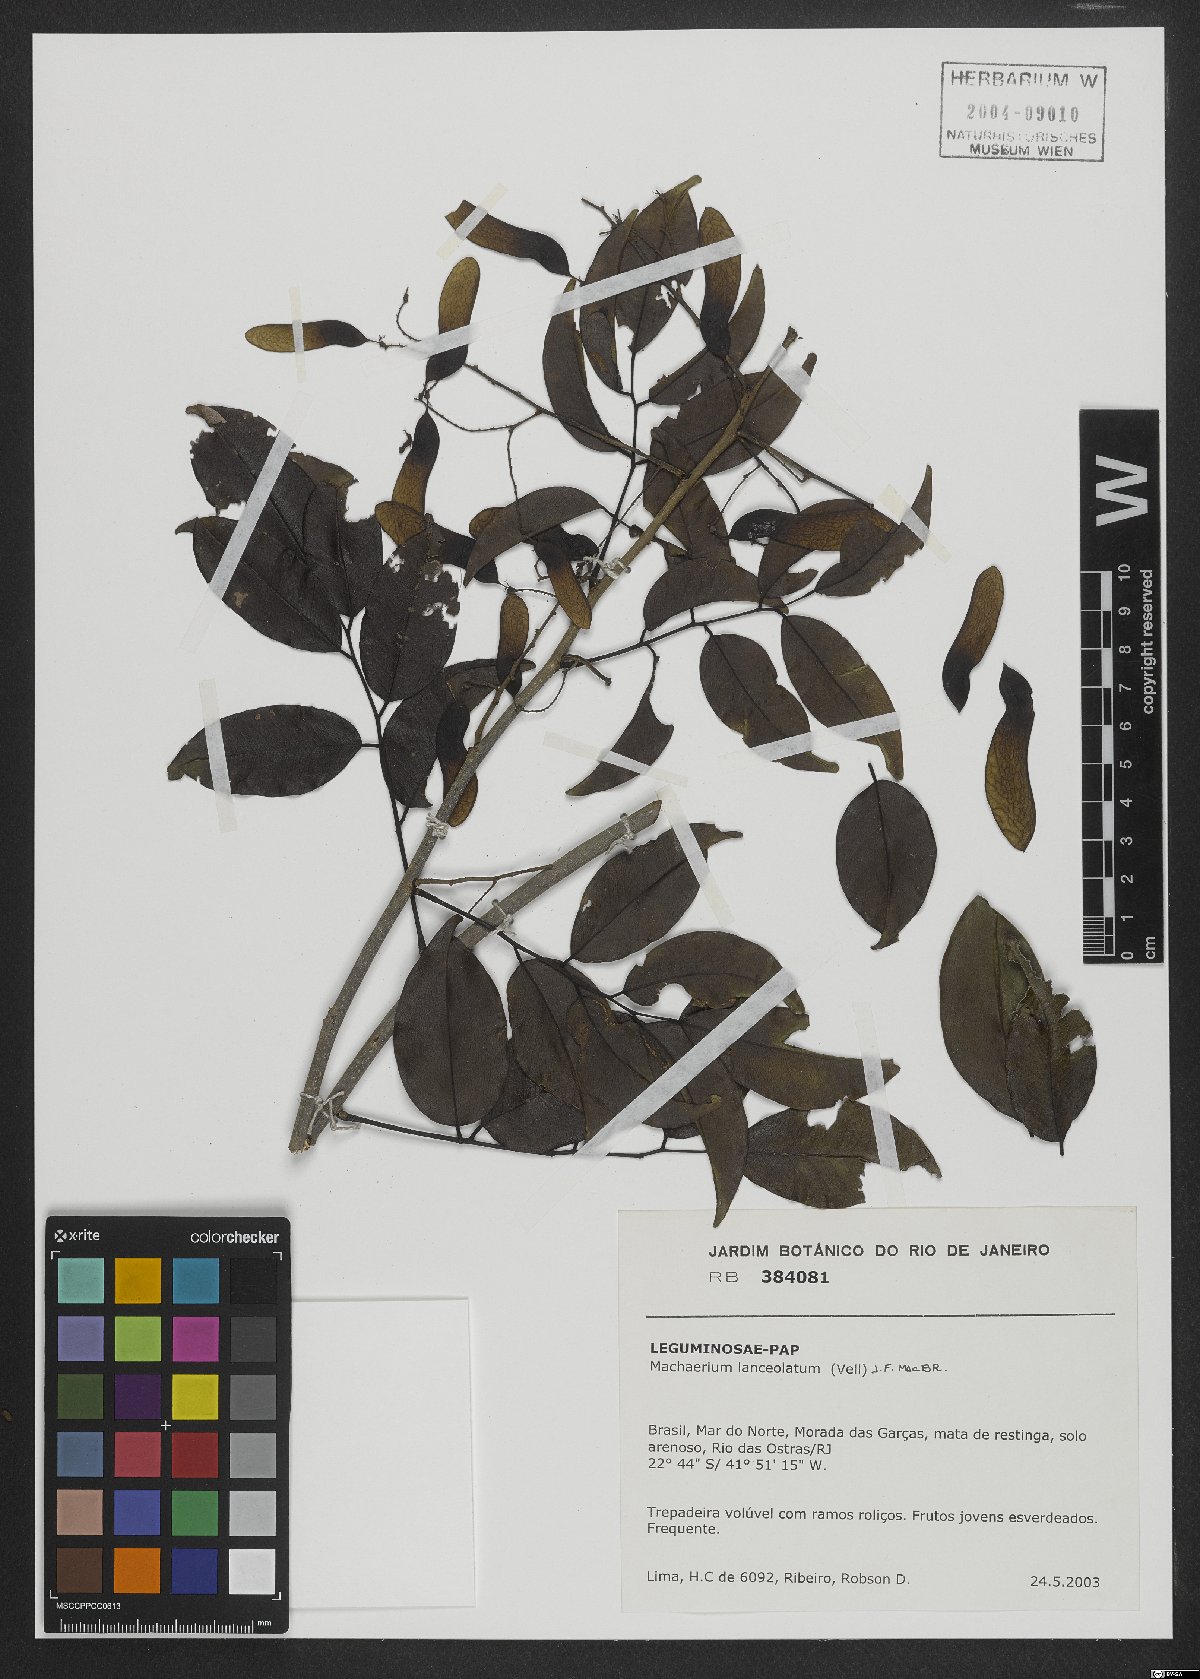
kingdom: Plantae
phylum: Tracheophyta
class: Magnoliopsida
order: Fabales
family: Fabaceae
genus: Machaerium
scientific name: Machaerium lanceolatum
